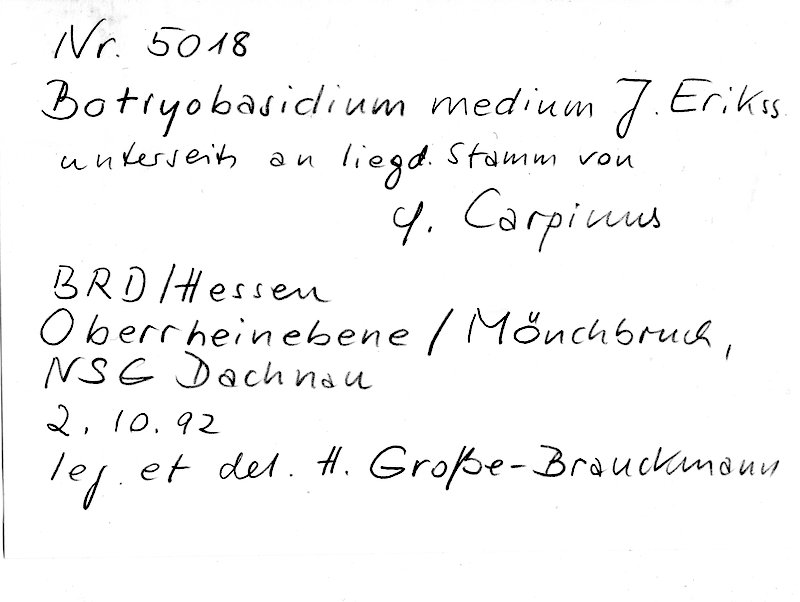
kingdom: Plantae
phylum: Tracheophyta
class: Magnoliopsida
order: Fagales
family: Betulaceae
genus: Carpinus
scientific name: Carpinus
